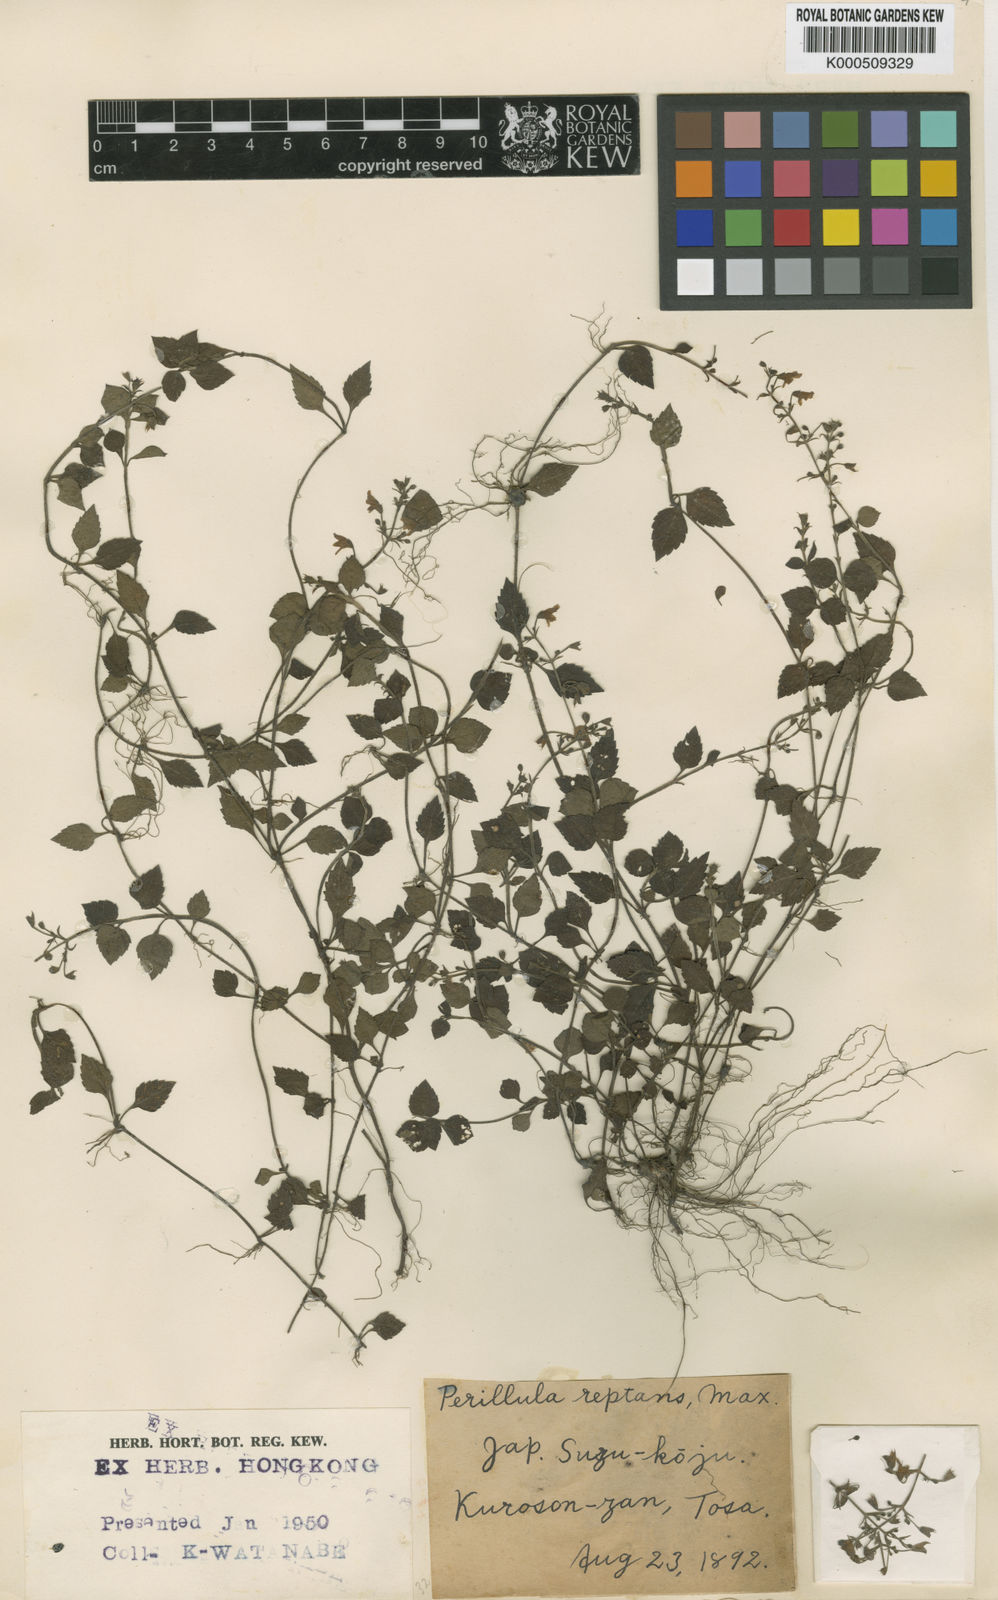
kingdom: Plantae
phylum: Tracheophyta
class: Magnoliopsida
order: Lamiales
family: Lamiaceae
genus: Perillula
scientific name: Perillula reptans
